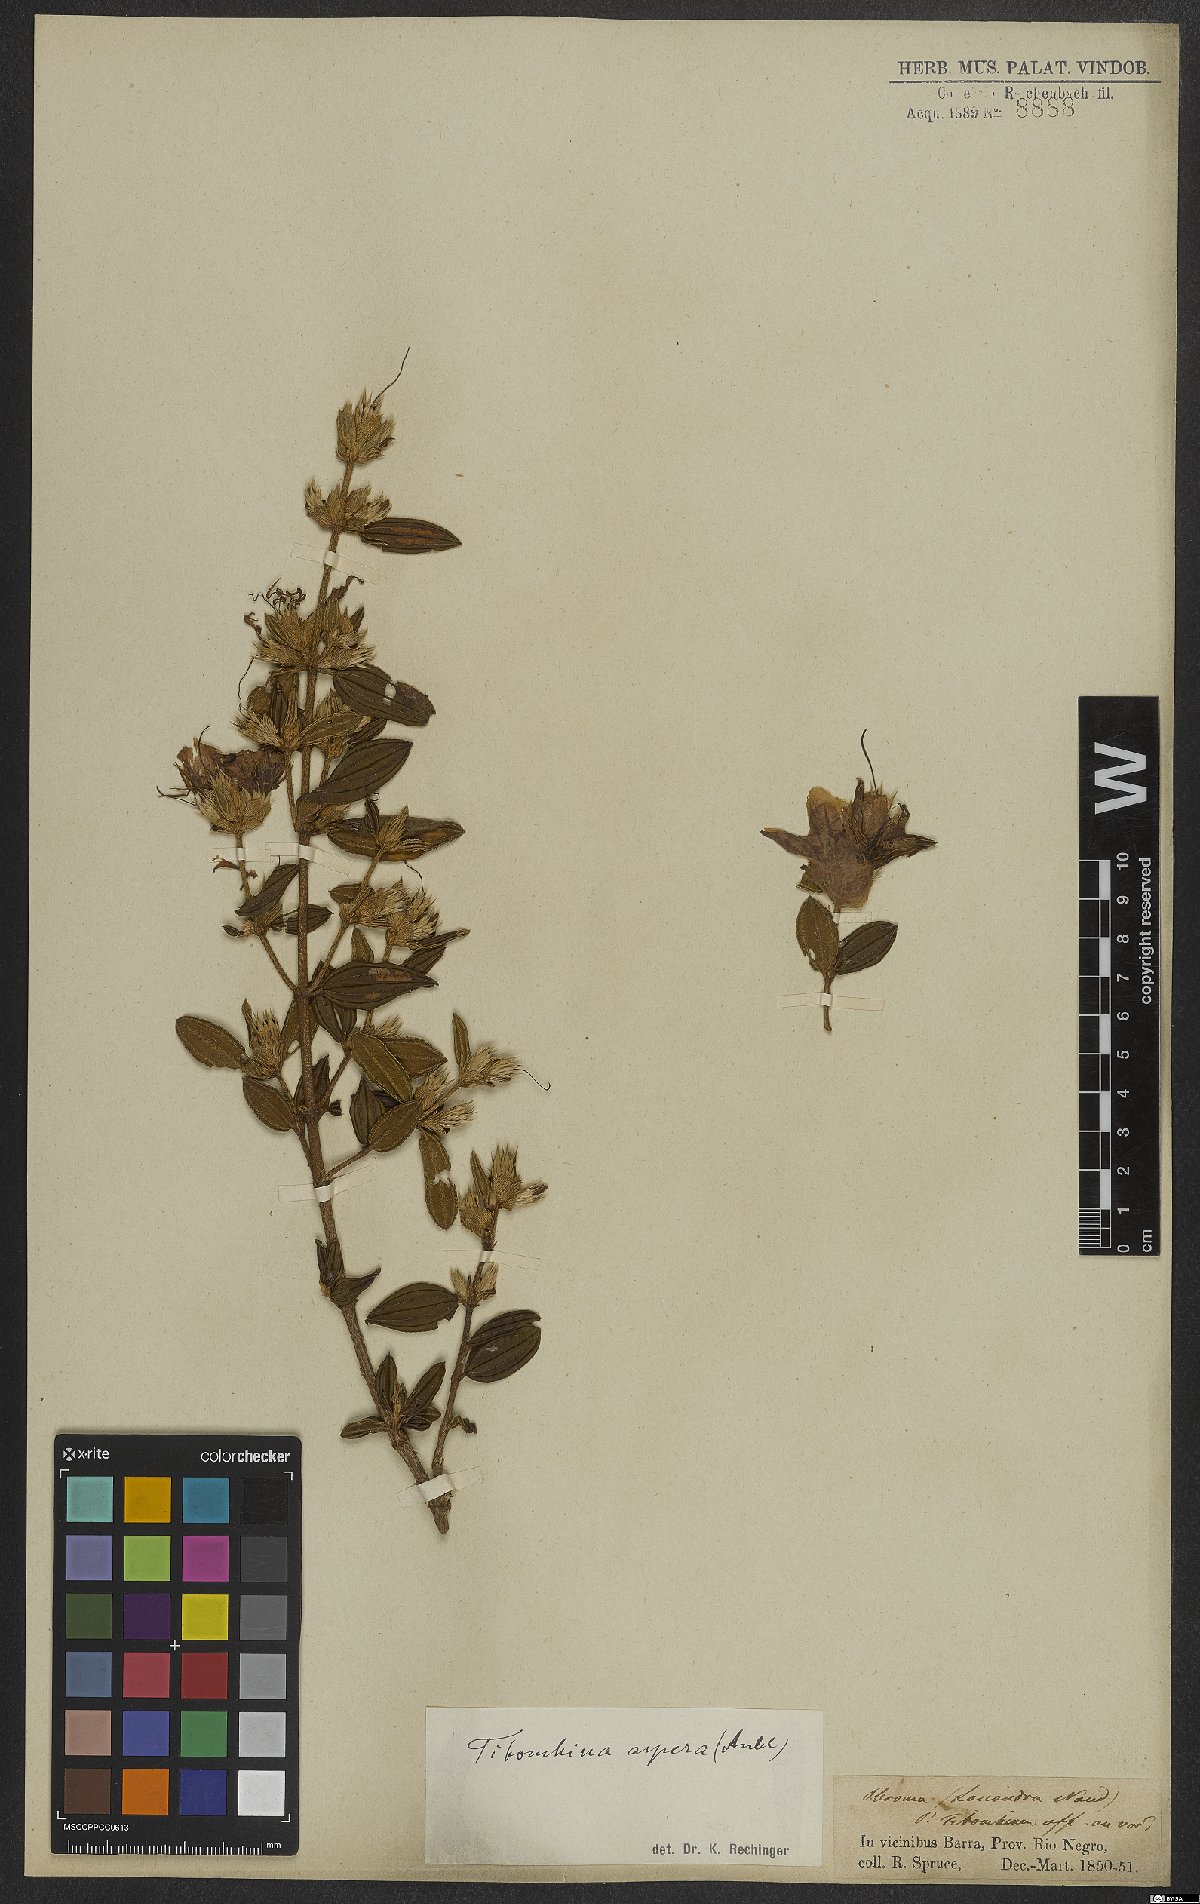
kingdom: Plantae
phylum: Tracheophyta
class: Magnoliopsida
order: Myrtales
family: Melastomataceae
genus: Tibouchina
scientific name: Tibouchina aspera
